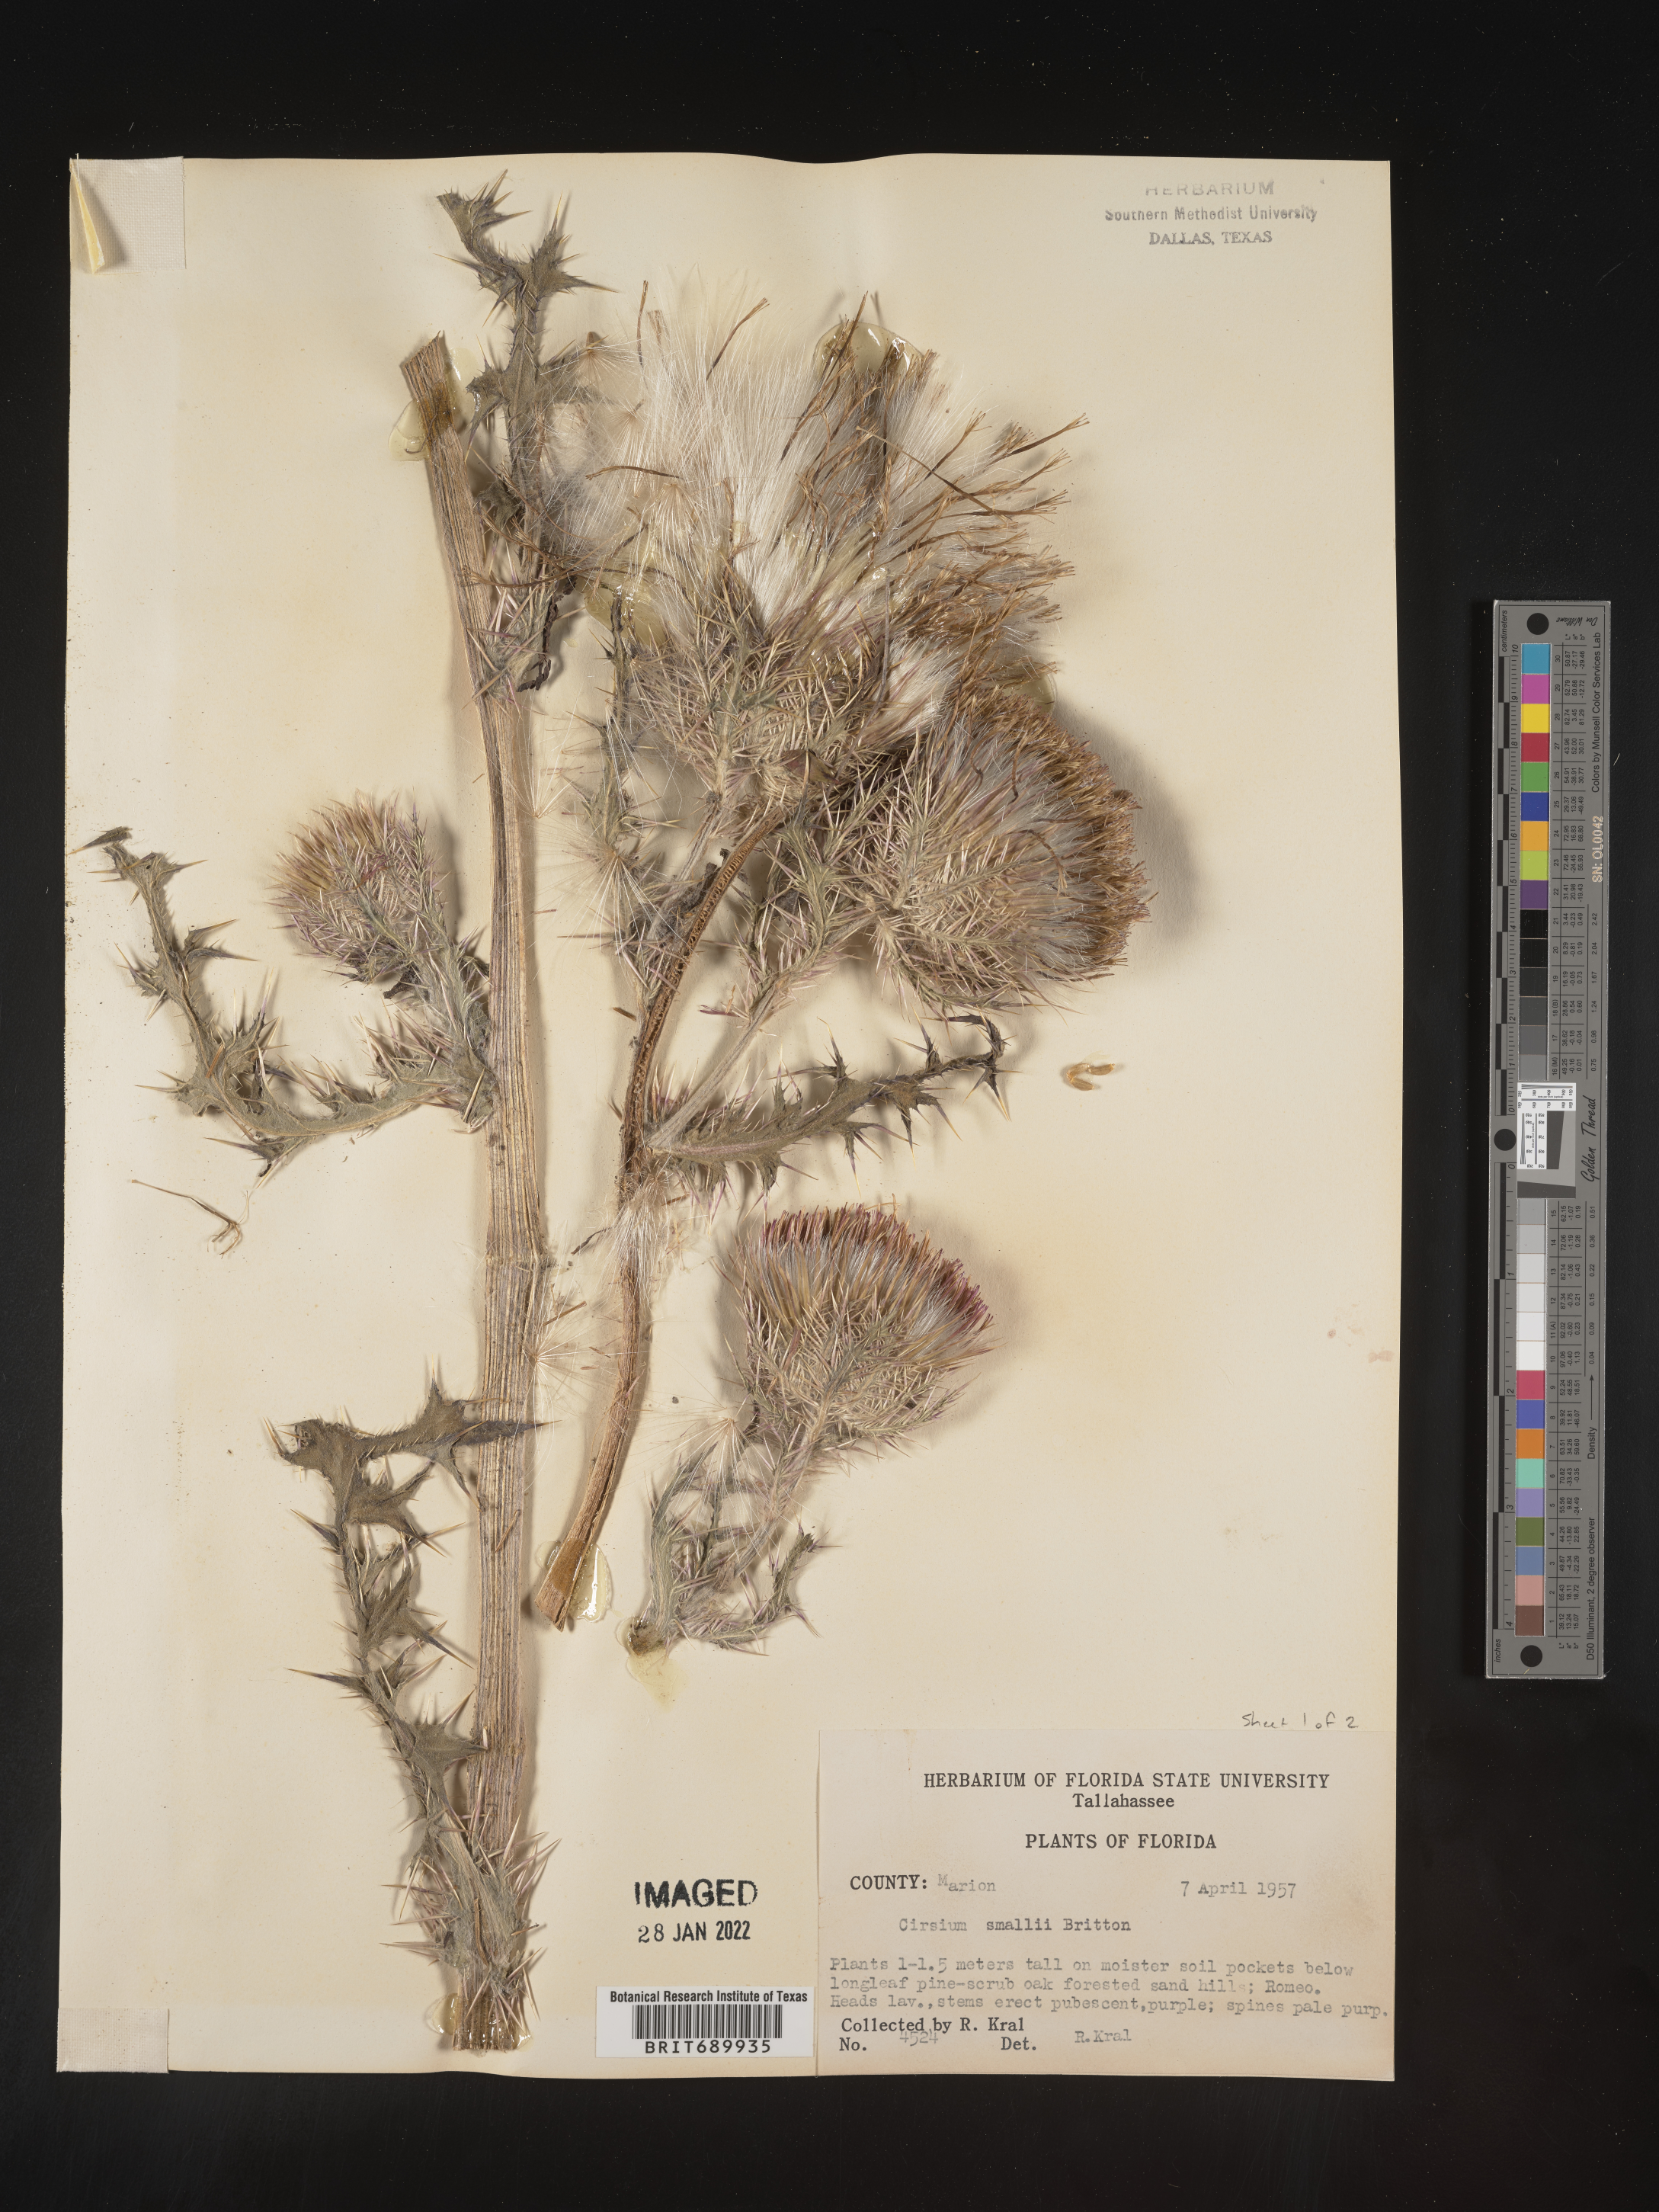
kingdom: Plantae
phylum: Tracheophyta
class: Magnoliopsida
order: Asterales
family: Asteraceae
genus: Cirsium
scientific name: Cirsium horridulum
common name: Bristly thistle
